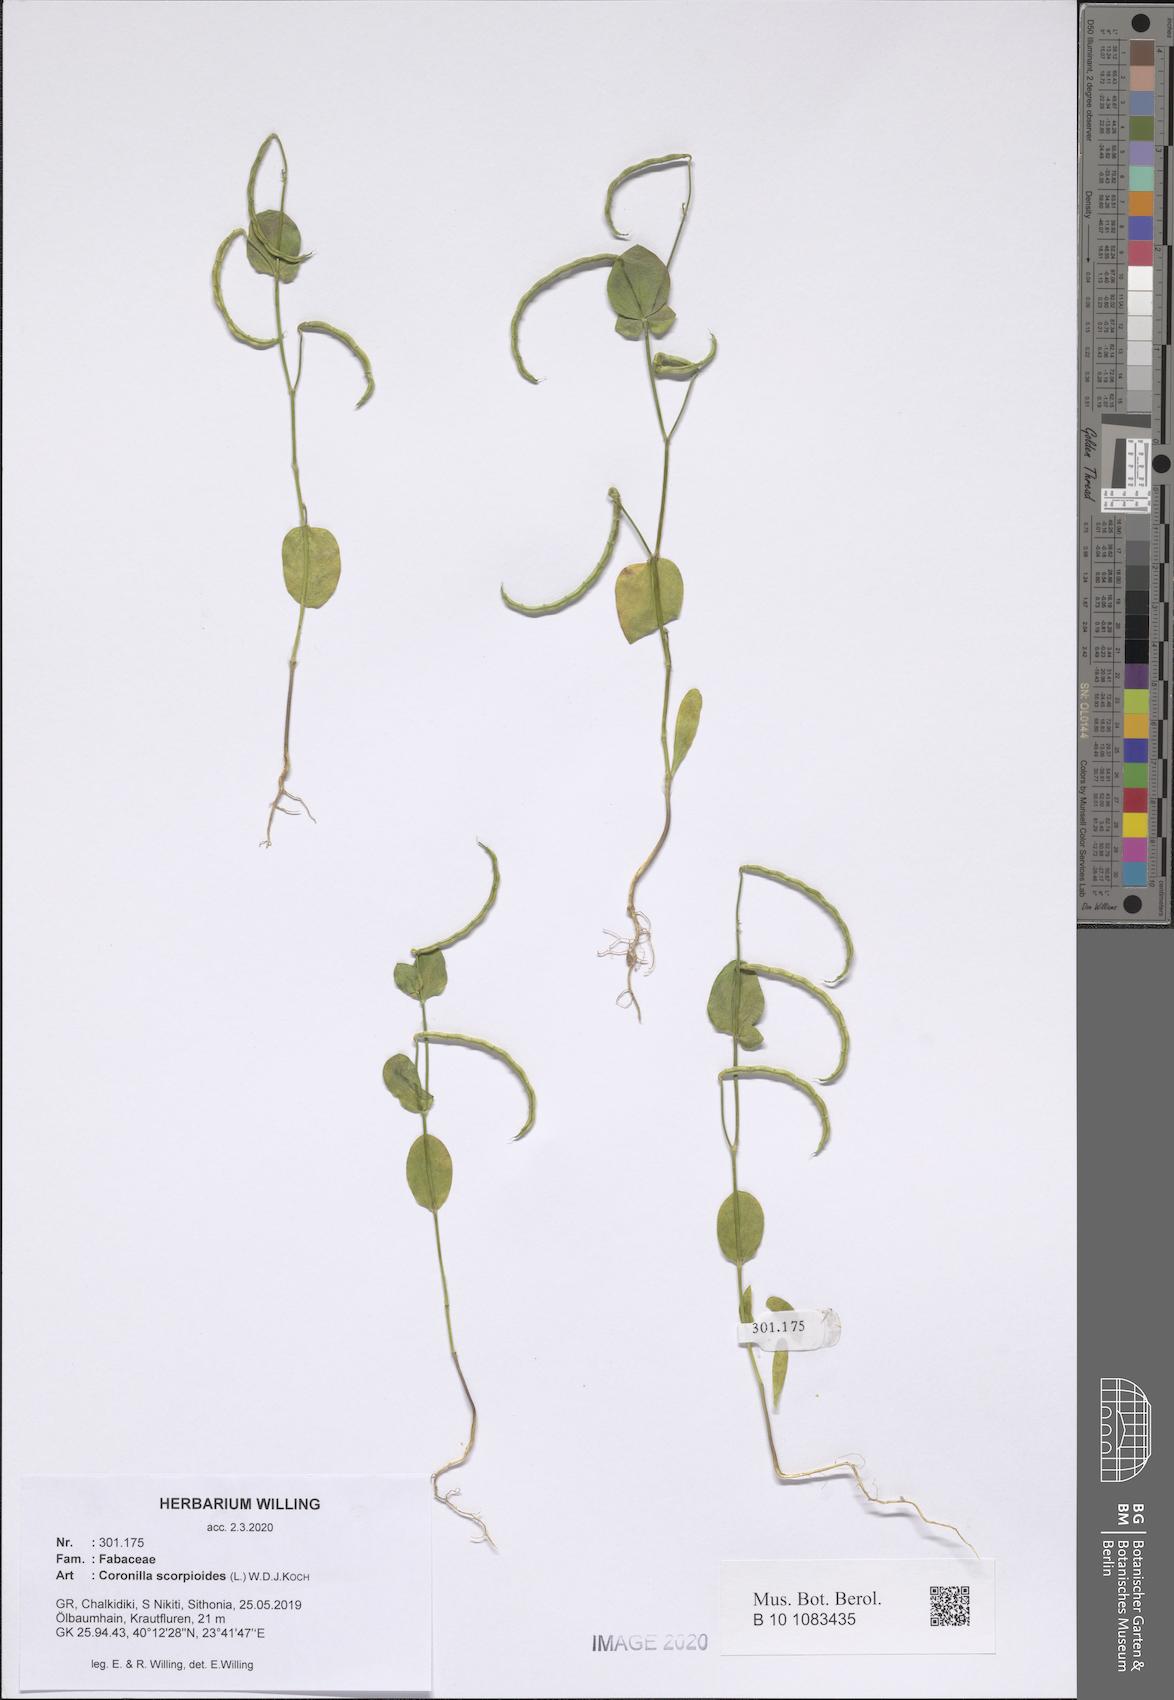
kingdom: Plantae
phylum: Tracheophyta
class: Magnoliopsida
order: Fabales
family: Fabaceae
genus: Coronilla
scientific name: Coronilla scorpioides
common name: Annual scorpion-vetch
